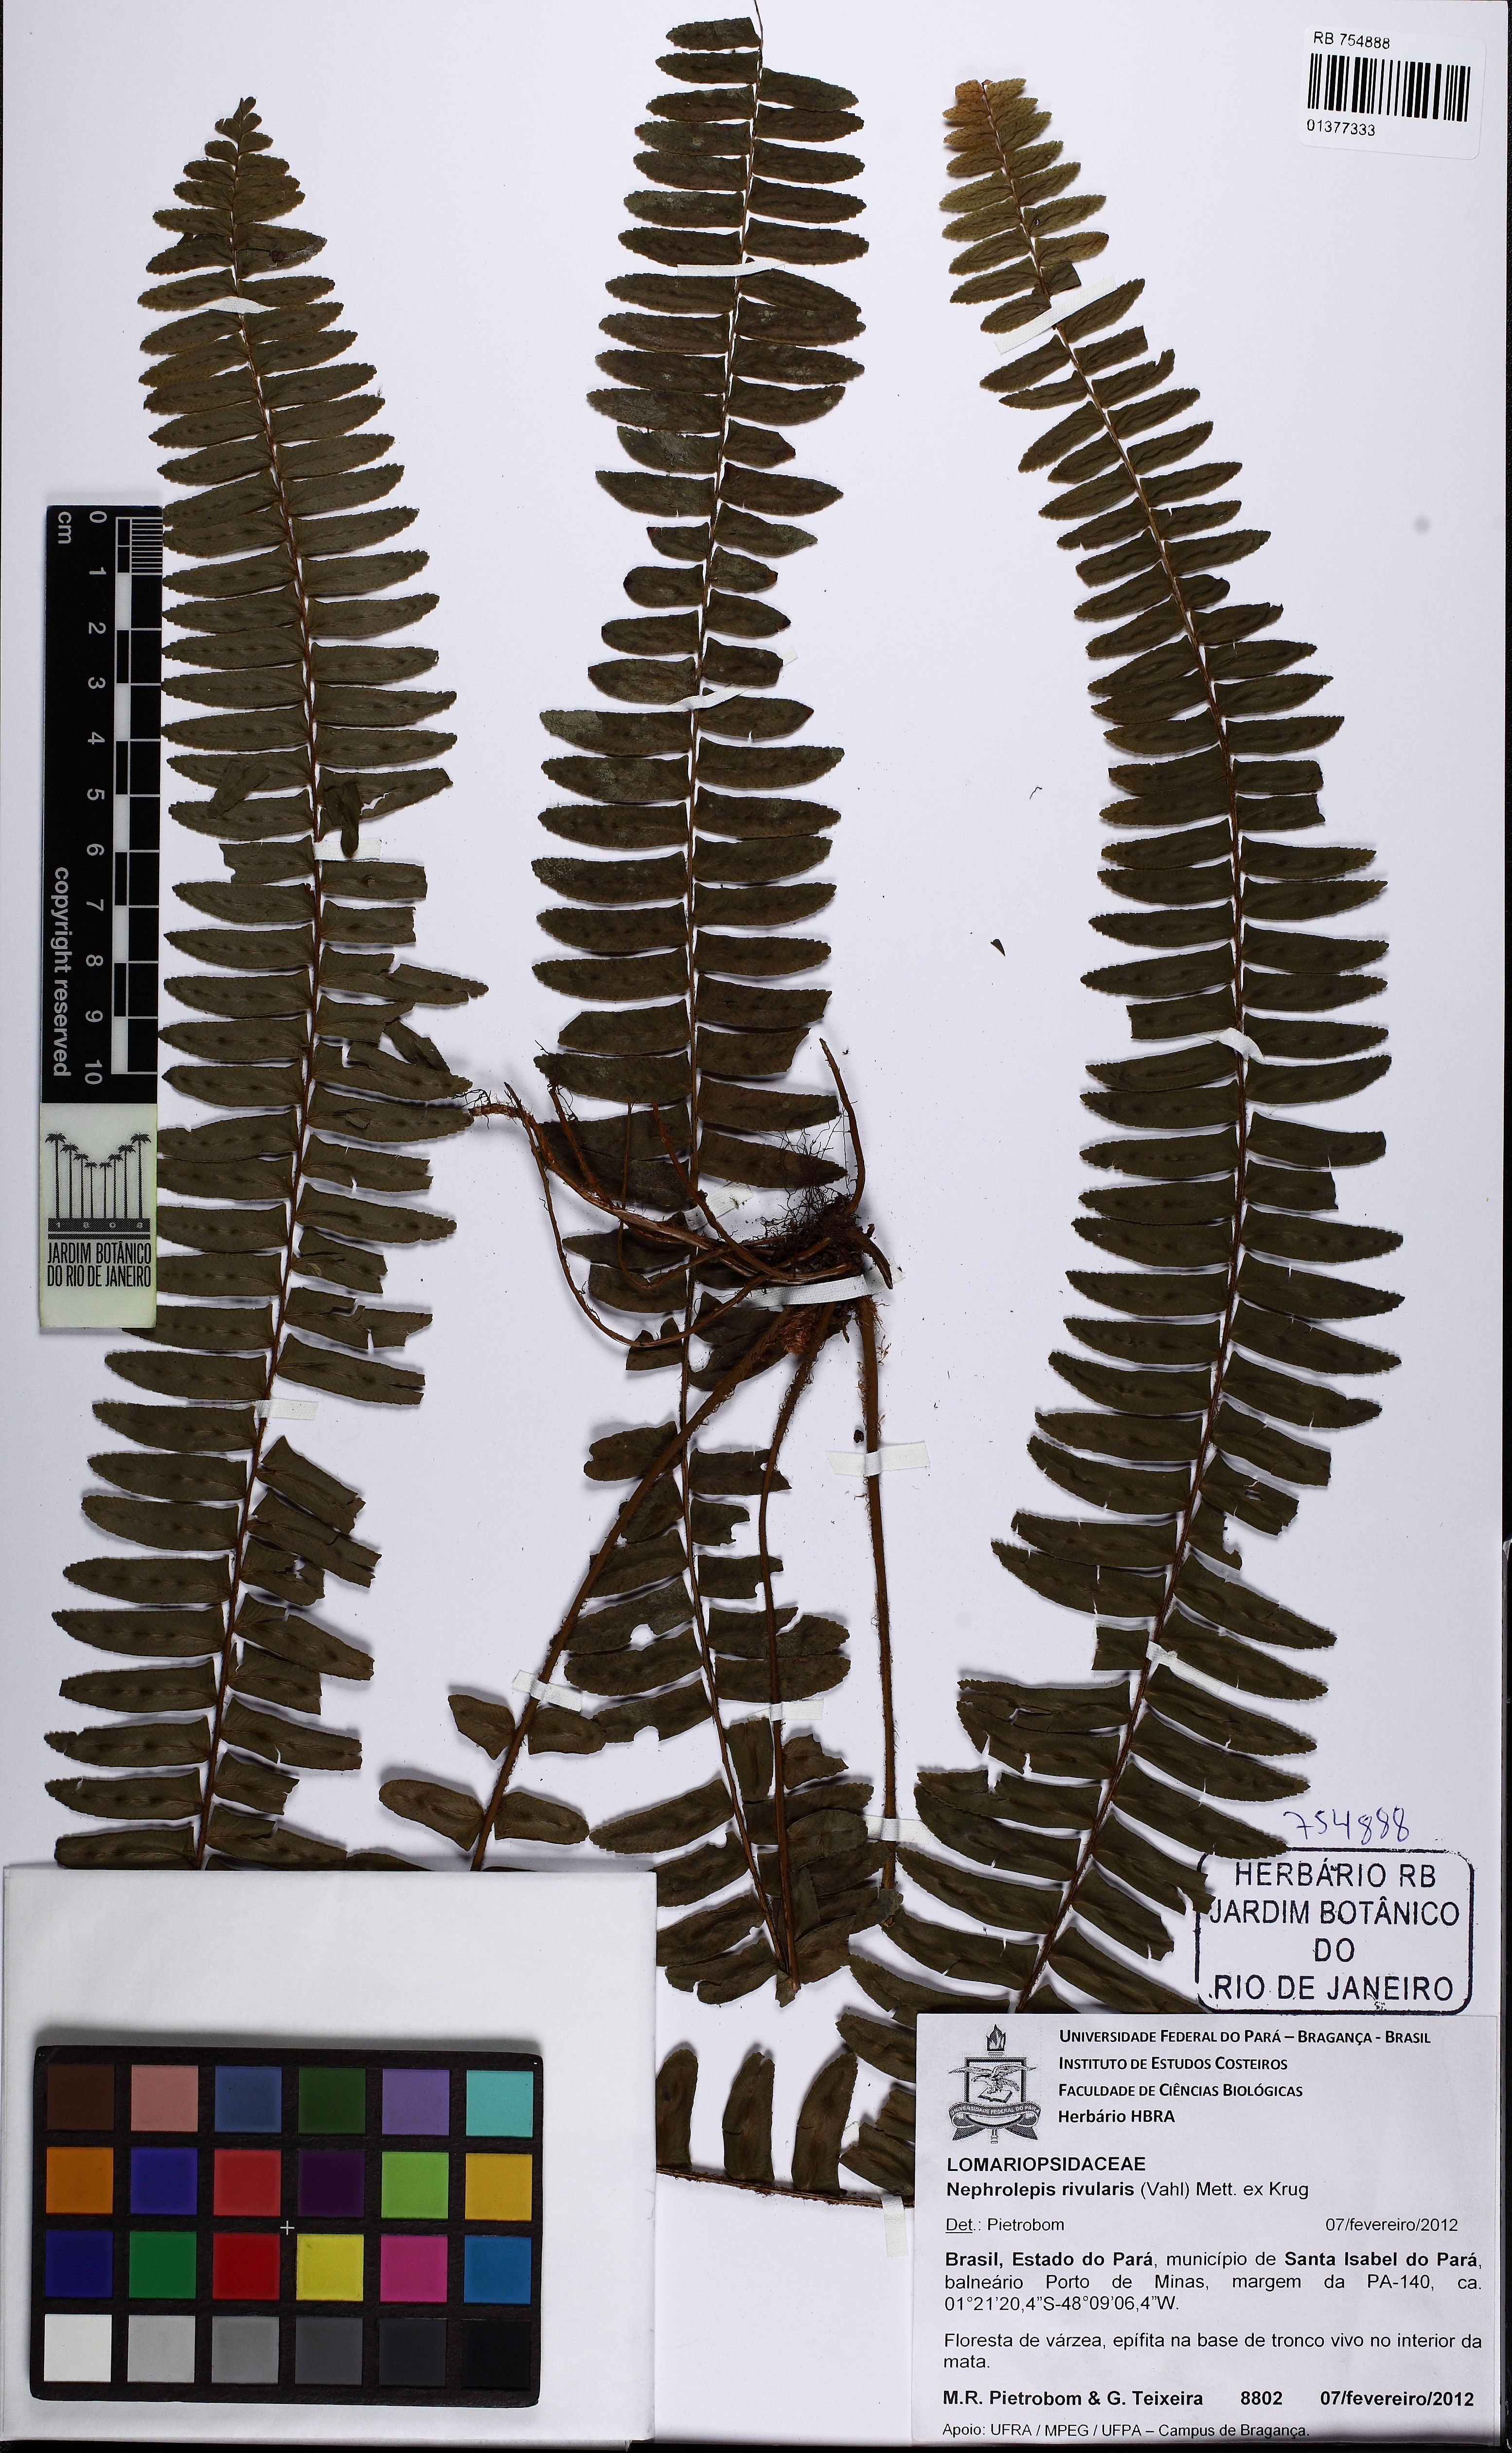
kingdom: Plantae
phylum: Tracheophyta
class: Polypodiopsida
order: Polypodiales
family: Nephrolepidaceae
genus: Nephrolepis
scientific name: Nephrolepis rivularis
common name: Streamside swordfern
